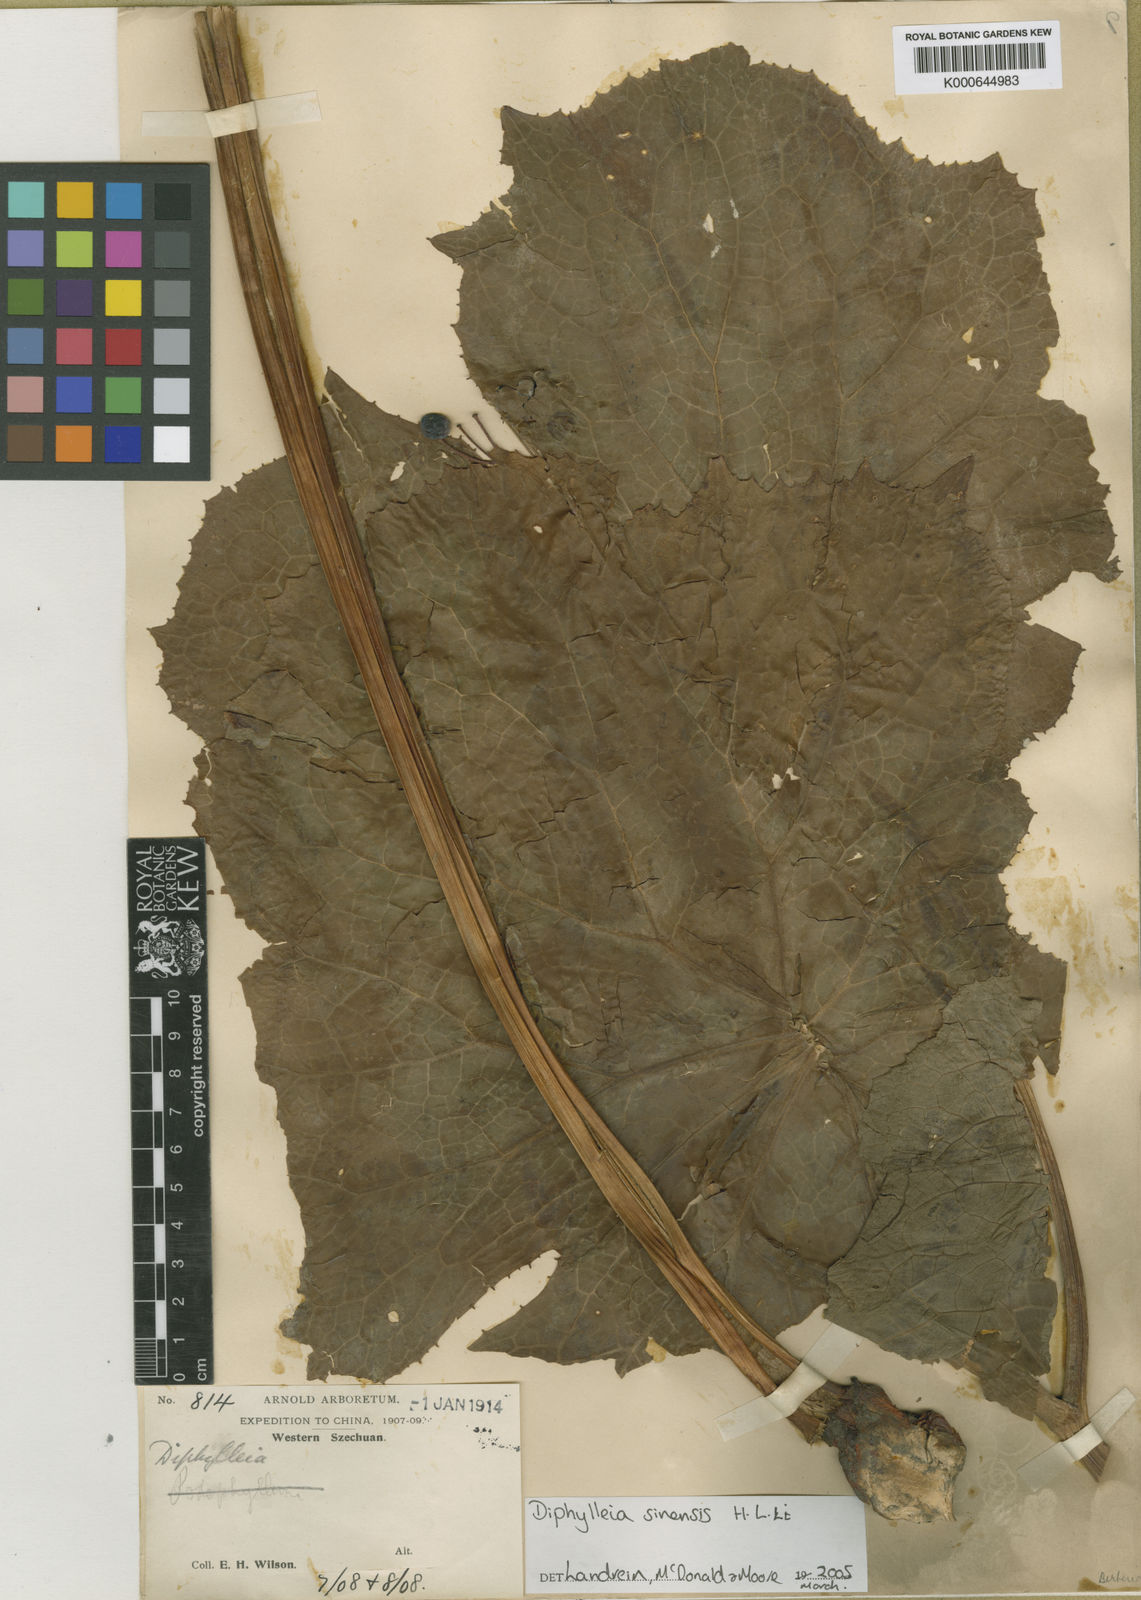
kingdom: Plantae
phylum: Tracheophyta
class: Magnoliopsida
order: Ranunculales
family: Berberidaceae
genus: Diphylleia
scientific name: Diphylleia sinensis
